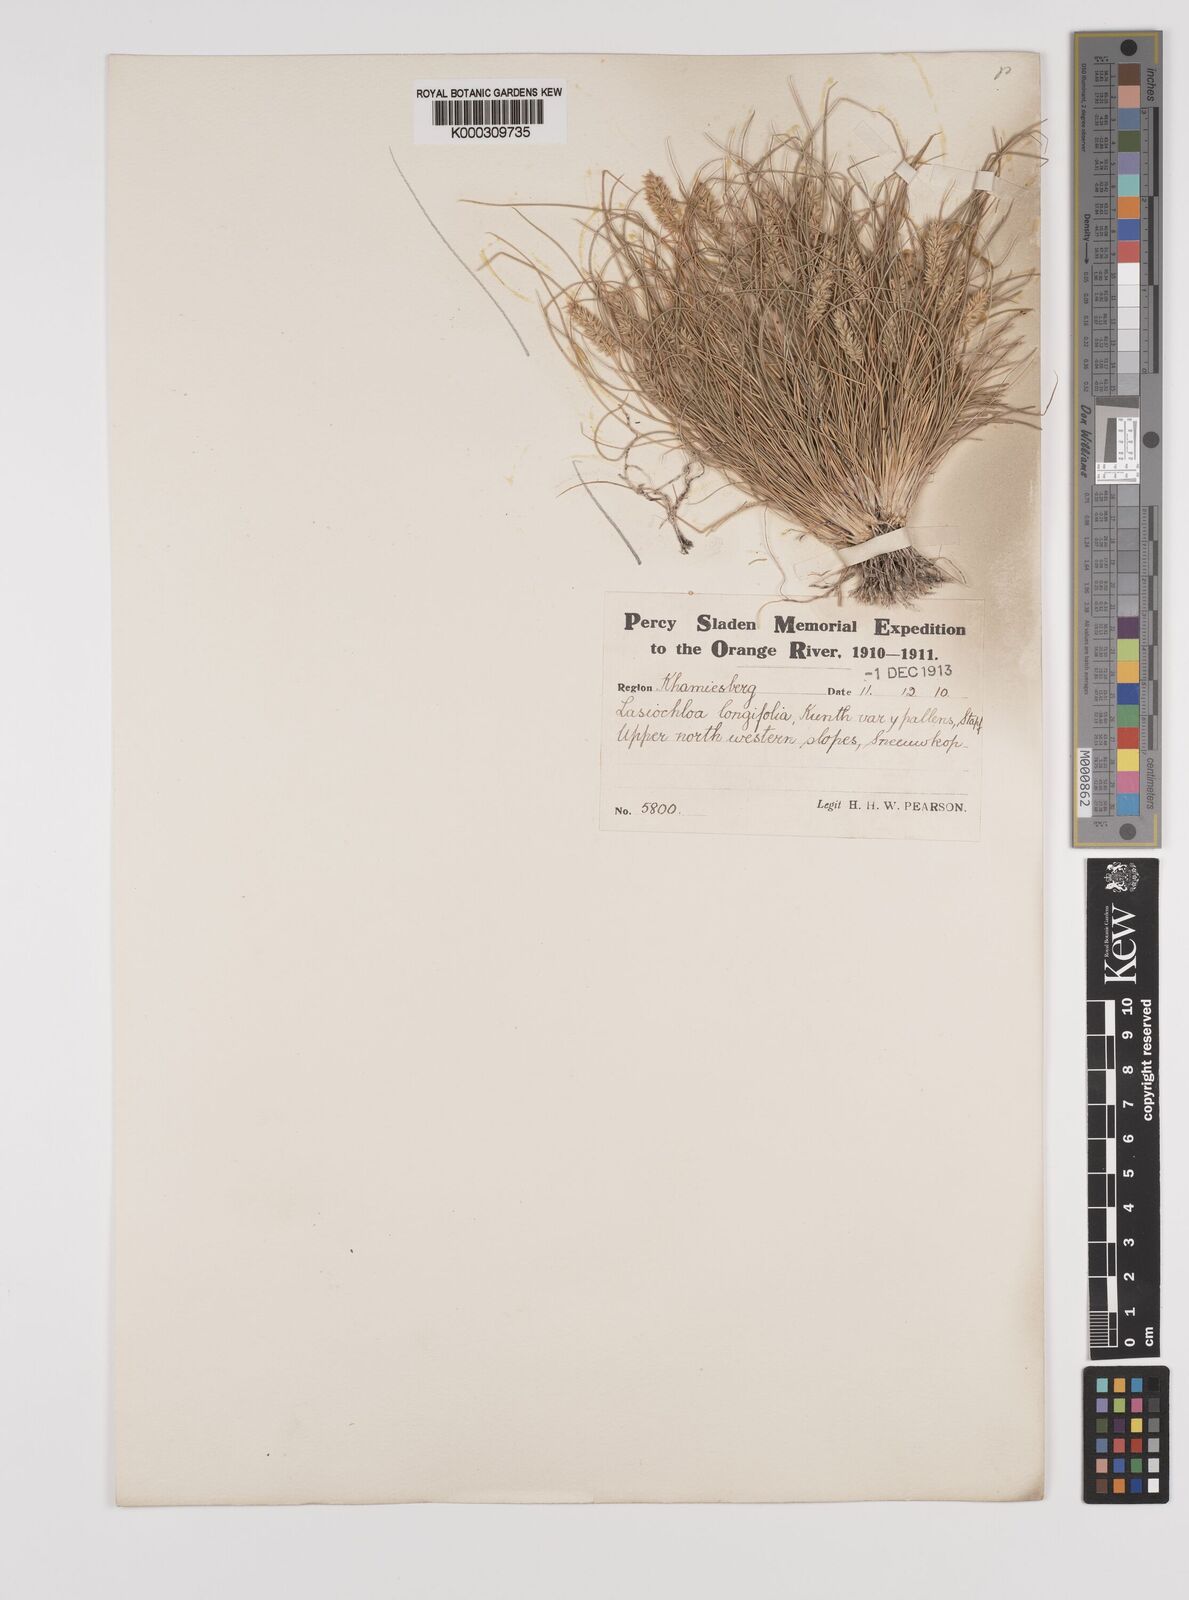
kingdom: Plantae
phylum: Tracheophyta
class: Liliopsida
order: Poales
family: Poaceae
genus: Tribolium
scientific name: Tribolium hispidum
